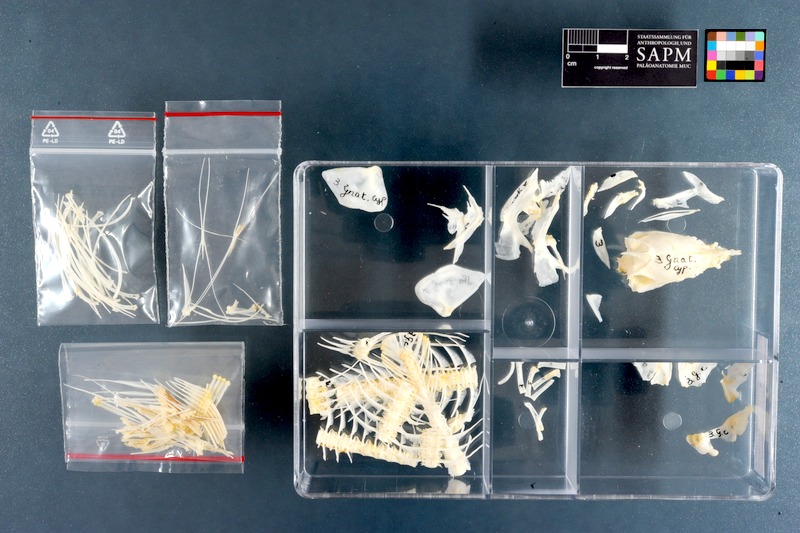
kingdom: Animalia
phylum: Chordata
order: Osteoglossiformes
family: Mormyridae
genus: Marcusenius
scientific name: Marcusenius cyprinoides
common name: Trunkfish
